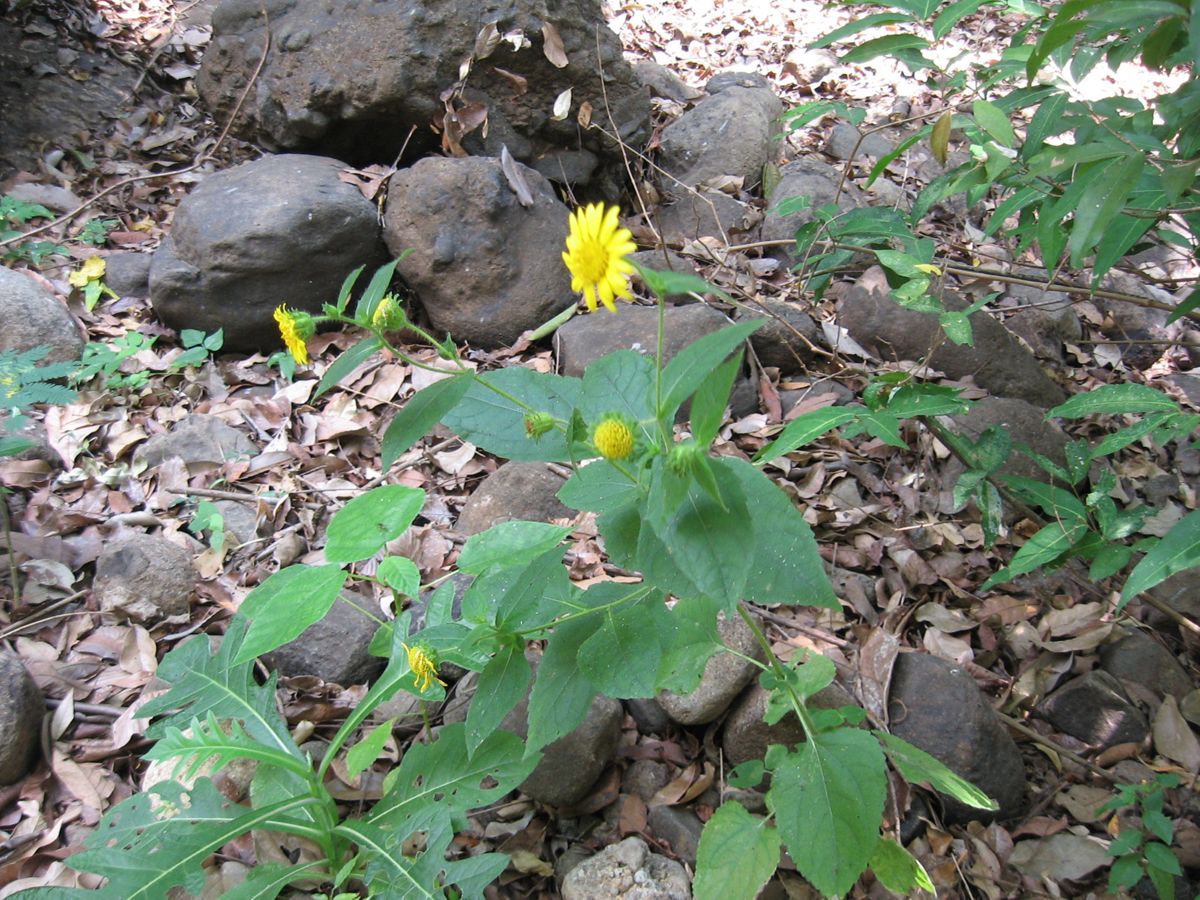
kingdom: Plantae
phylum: Tracheophyta
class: Magnoliopsida
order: Fabales
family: Fabaceae
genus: Galactia
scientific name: Galactia striata
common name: Florida hammock milkpea
